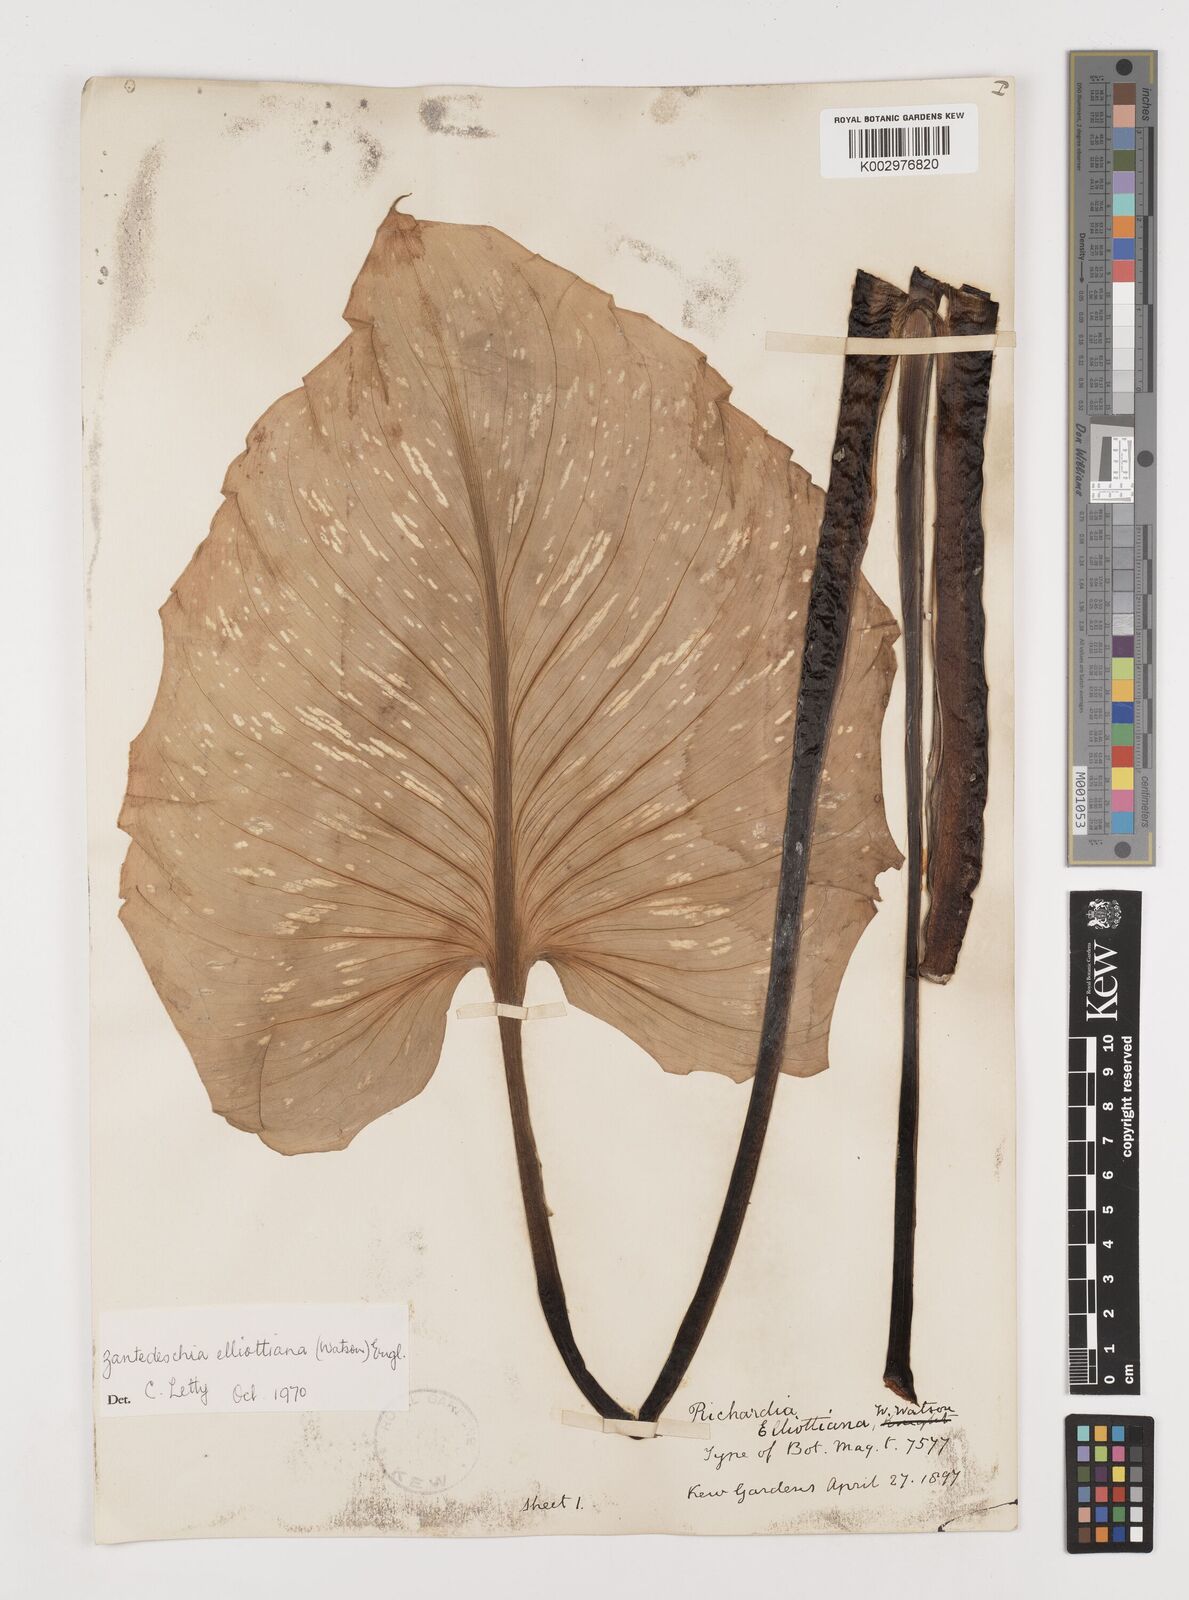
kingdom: Plantae
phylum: Tracheophyta
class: Liliopsida
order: Alismatales
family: Araceae
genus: Zantedeschia
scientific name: Zantedeschia elliottiana
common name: Yellow calla
